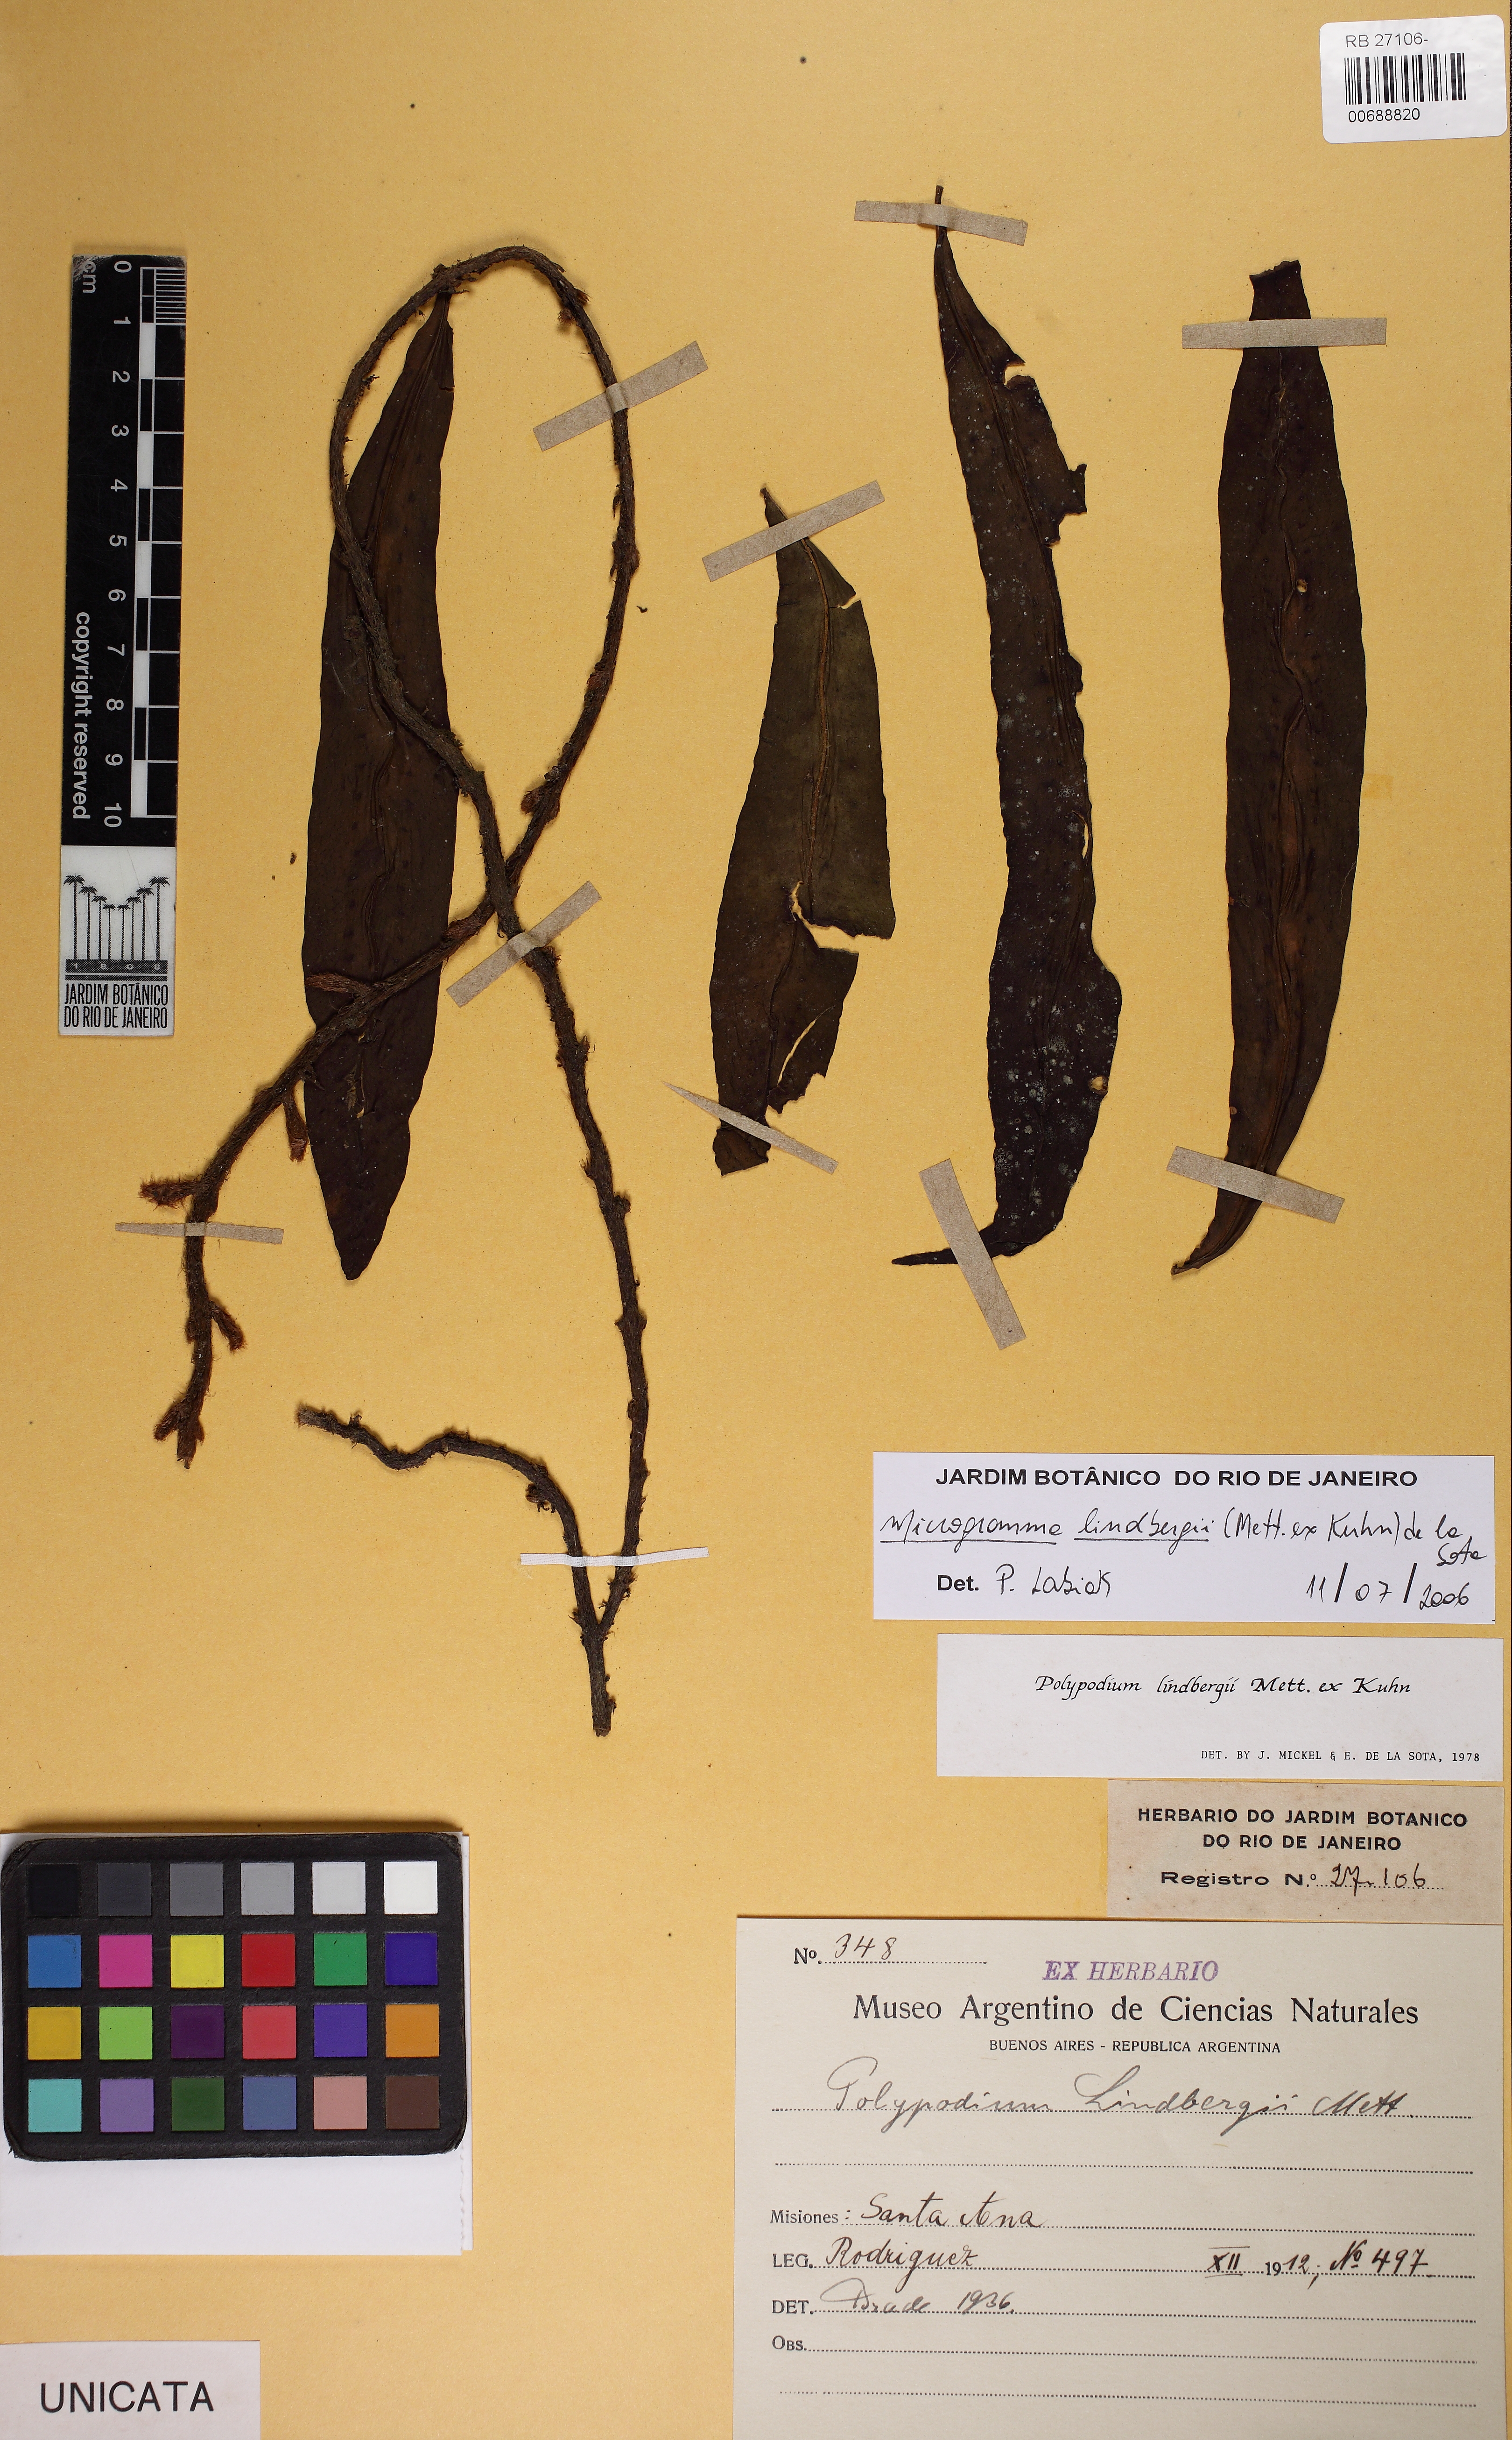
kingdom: Plantae
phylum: Tracheophyta
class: Polypodiopsida
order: Polypodiales
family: Polypodiaceae
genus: Microgramma
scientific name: Microgramma lycopodioides
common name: Bastard catclaw
